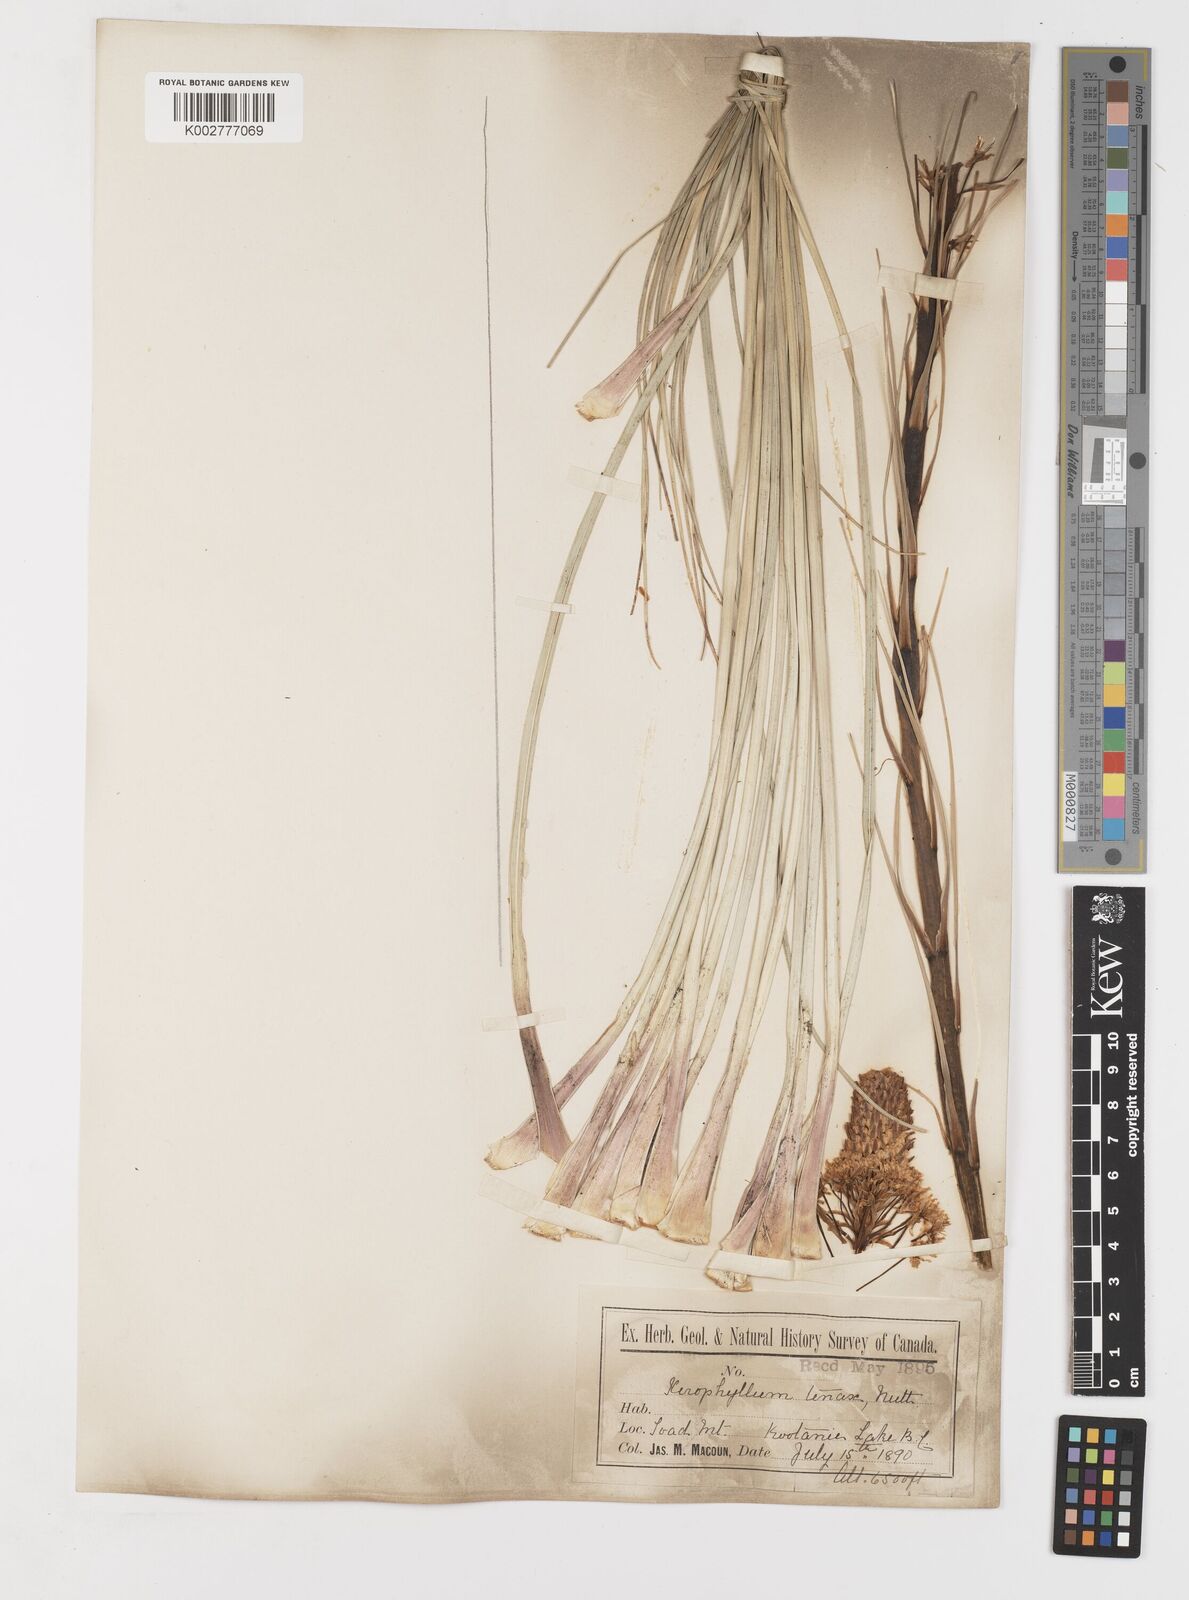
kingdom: Plantae
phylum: Tracheophyta
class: Liliopsida
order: Liliales
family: Melanthiaceae
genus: Xerophyllum
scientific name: Xerophyllum tenax
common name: Bear-grass
